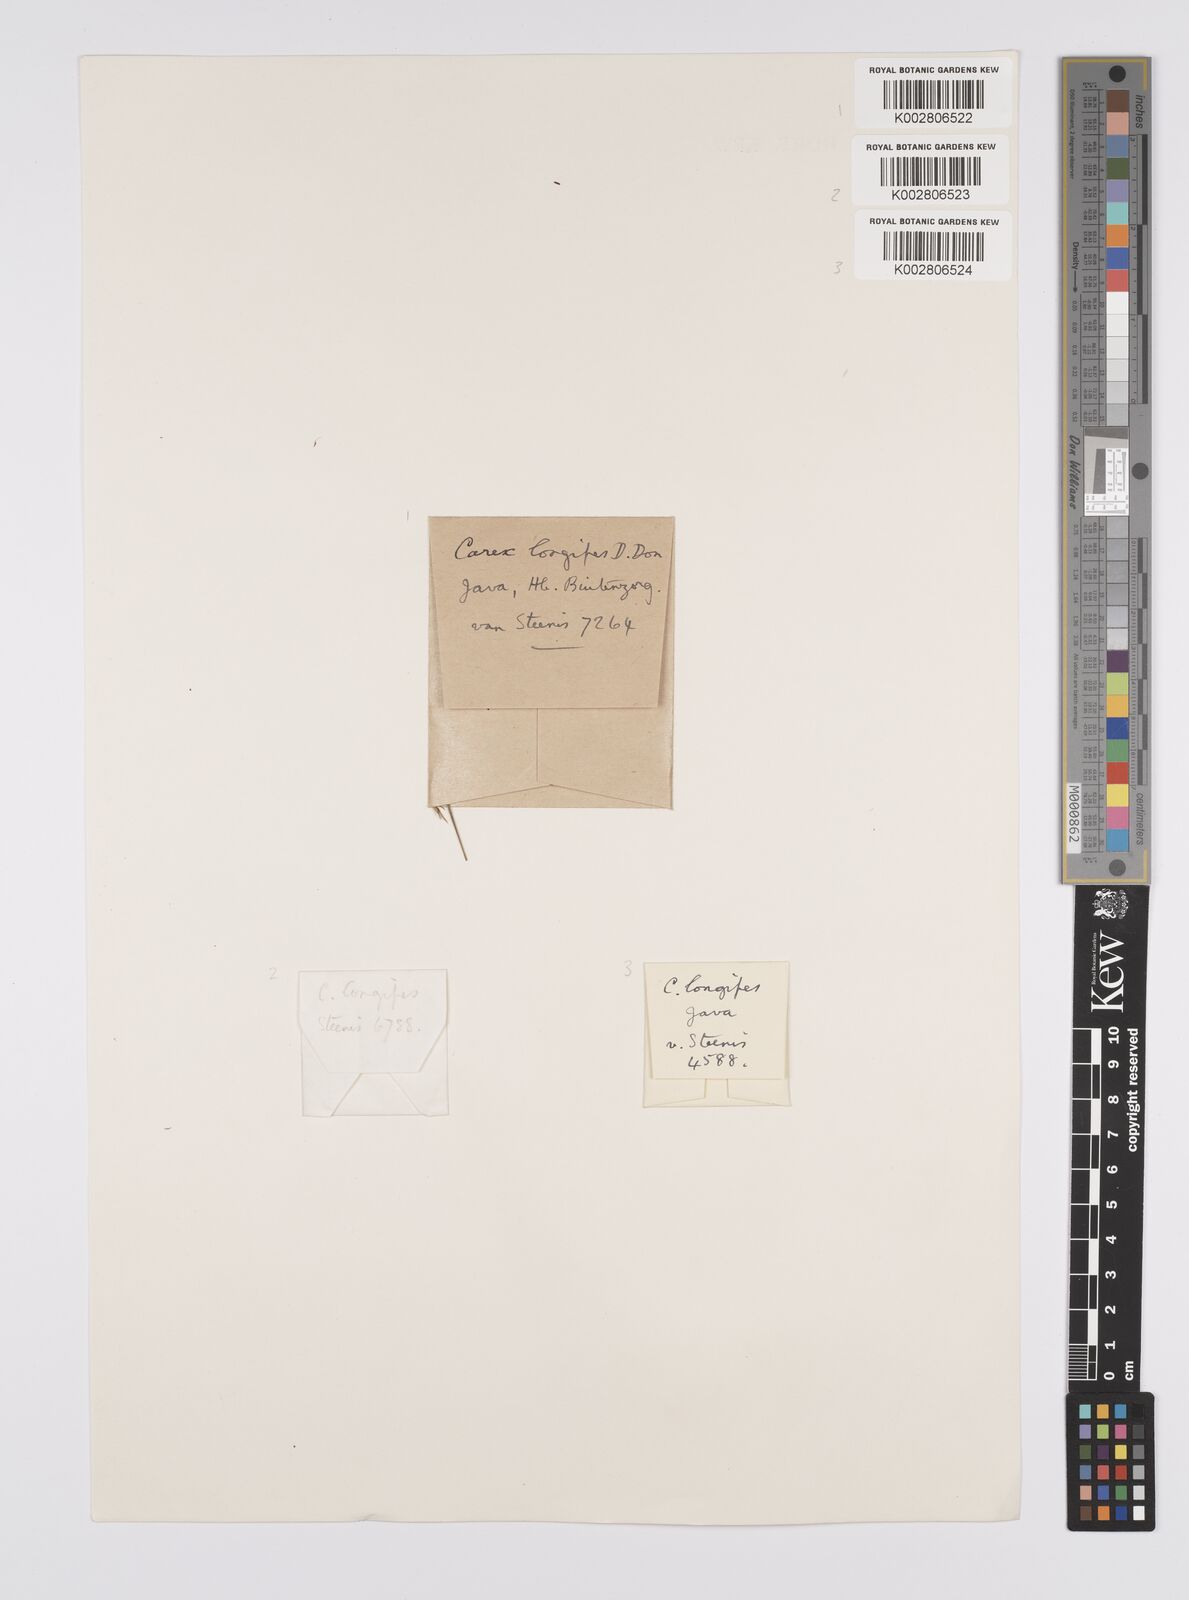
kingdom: Plantae
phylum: Tracheophyta
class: Liliopsida
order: Poales
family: Cyperaceae
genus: Carex
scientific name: Carex longipes
